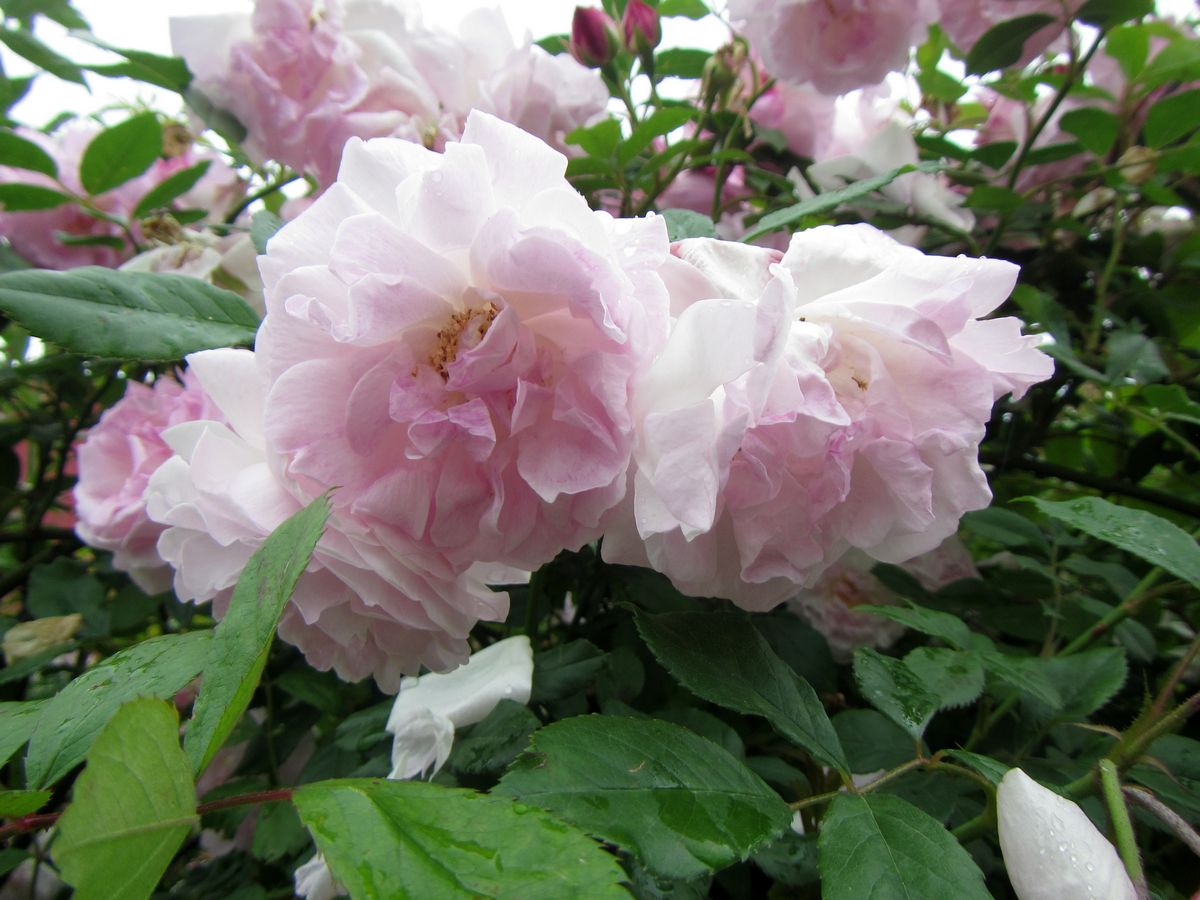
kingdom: Plantae
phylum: Tracheophyta
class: Magnoliopsida
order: Rosales
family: Rosaceae
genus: Rosa
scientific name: Rosa
